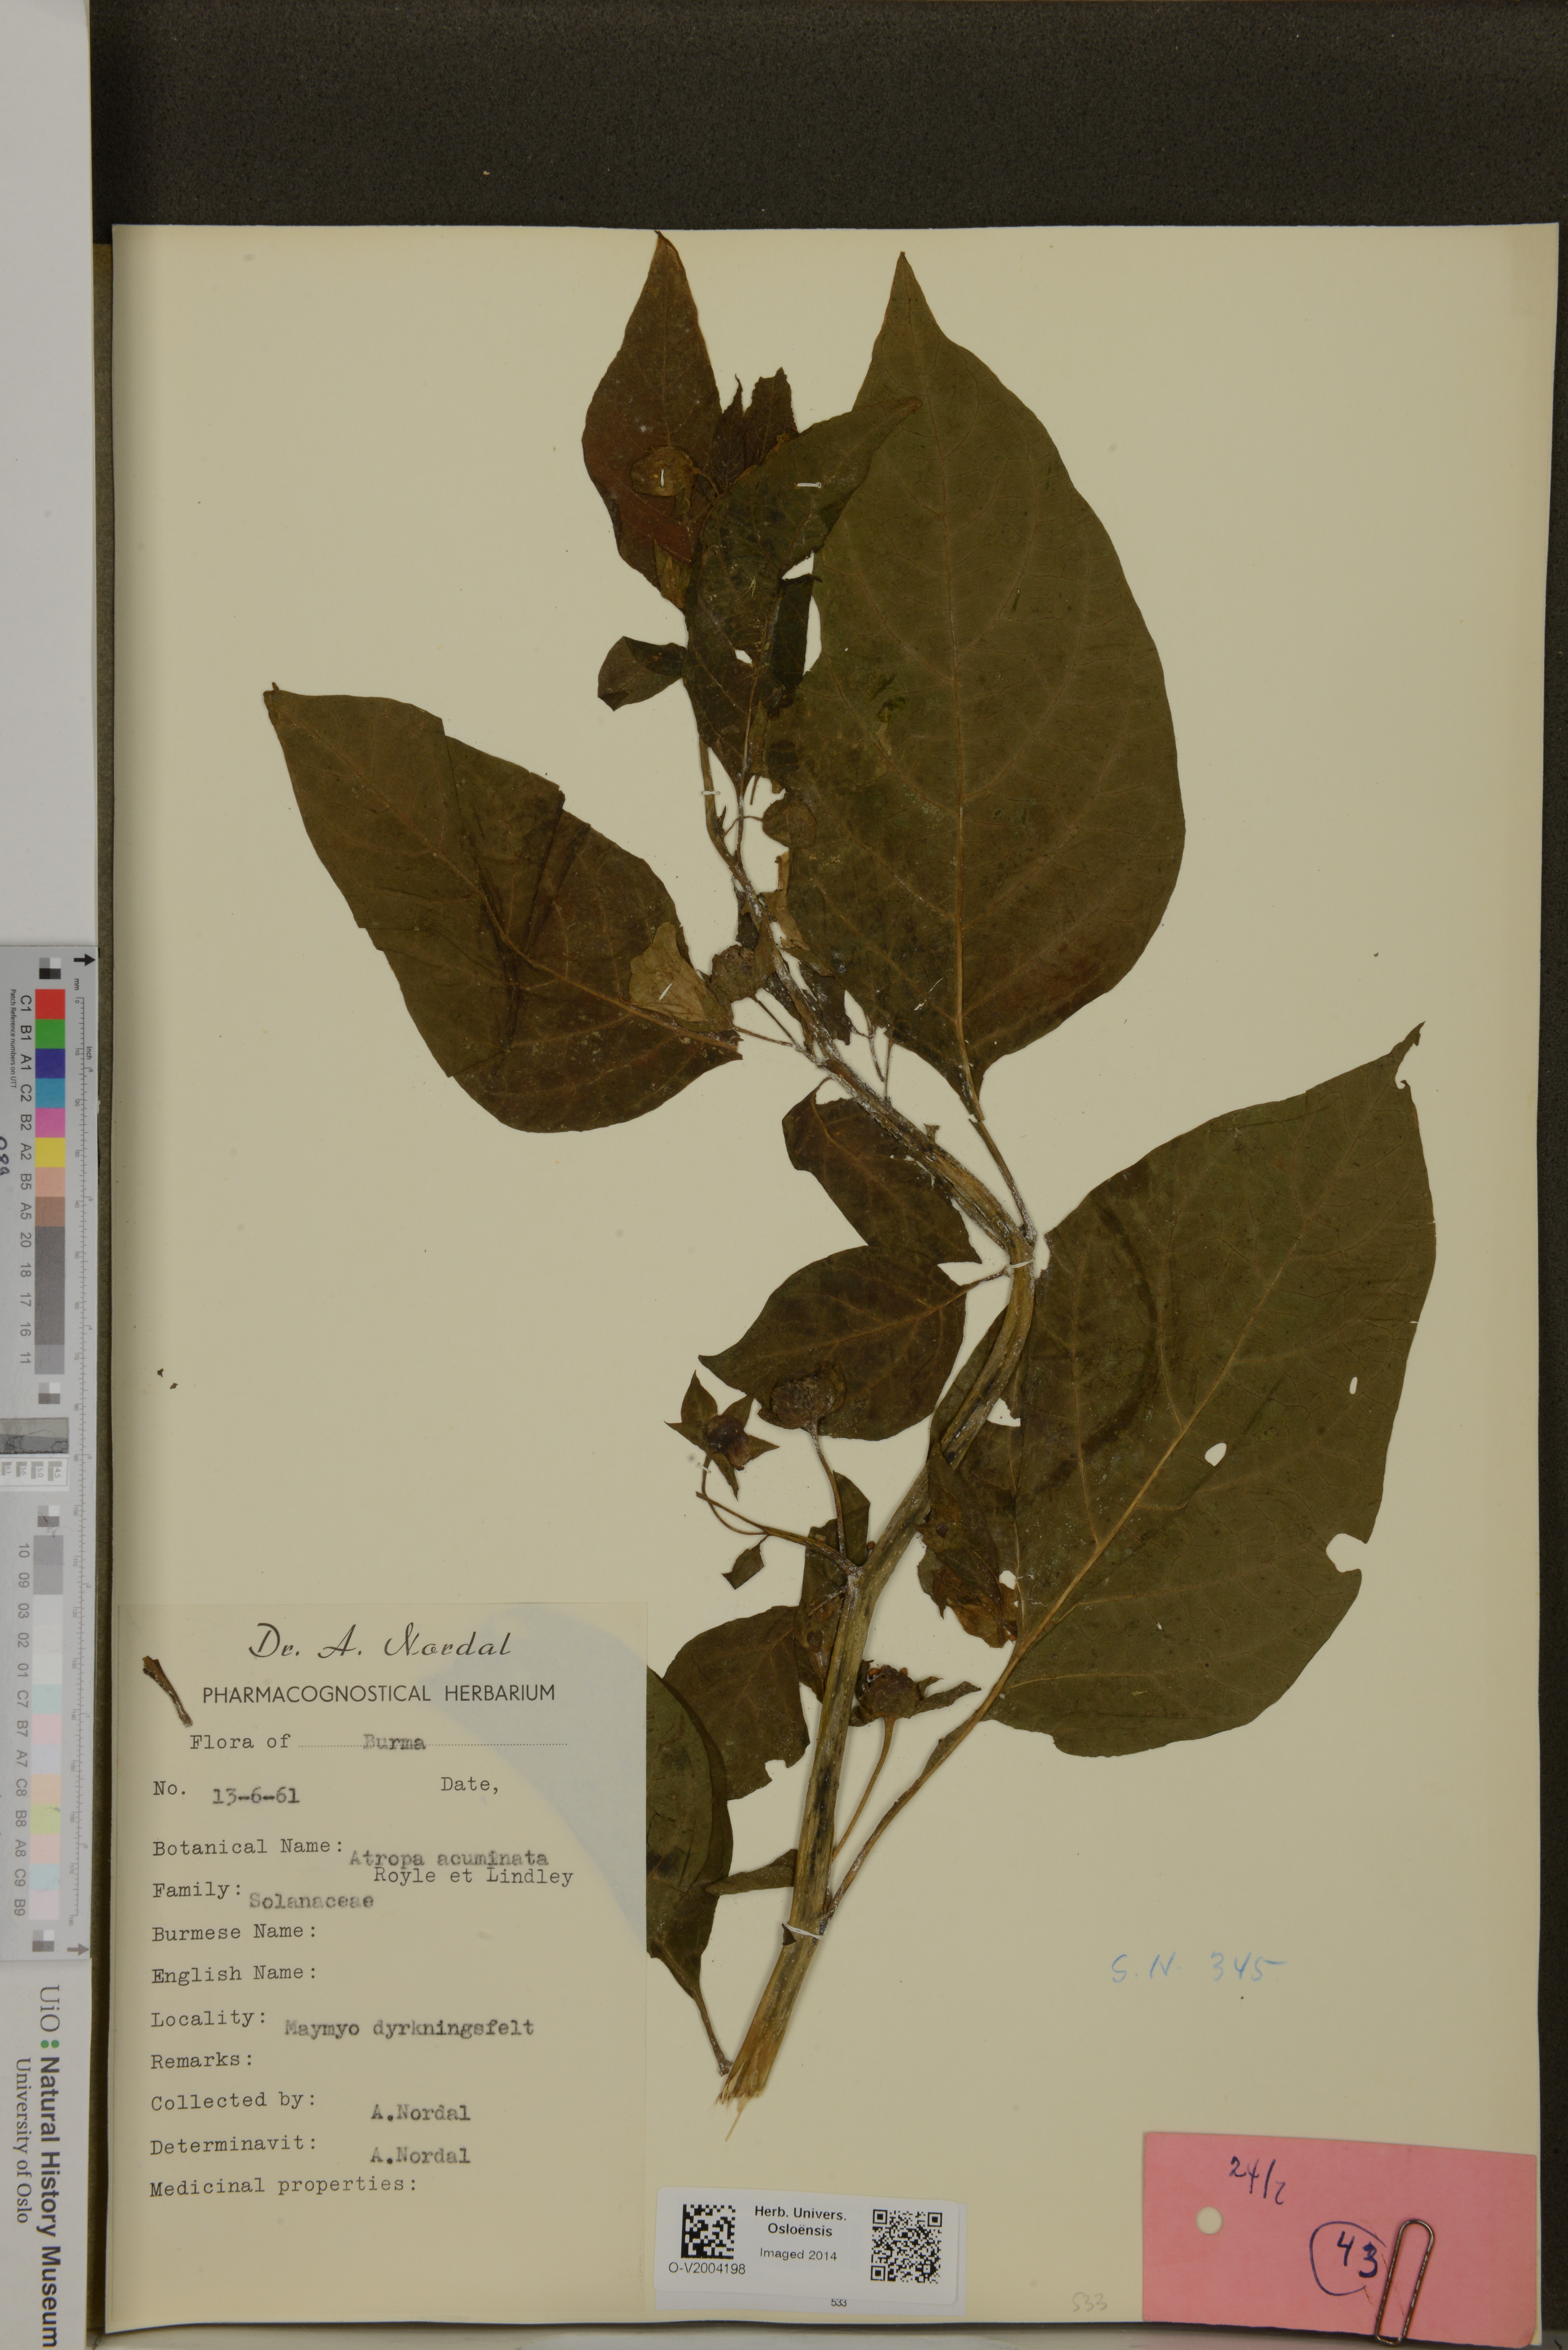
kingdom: Plantae
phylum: Tracheophyta
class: Magnoliopsida
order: Solanales
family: Solanaceae
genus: Atropa
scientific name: Atropa acuminata
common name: Indian belladonna
